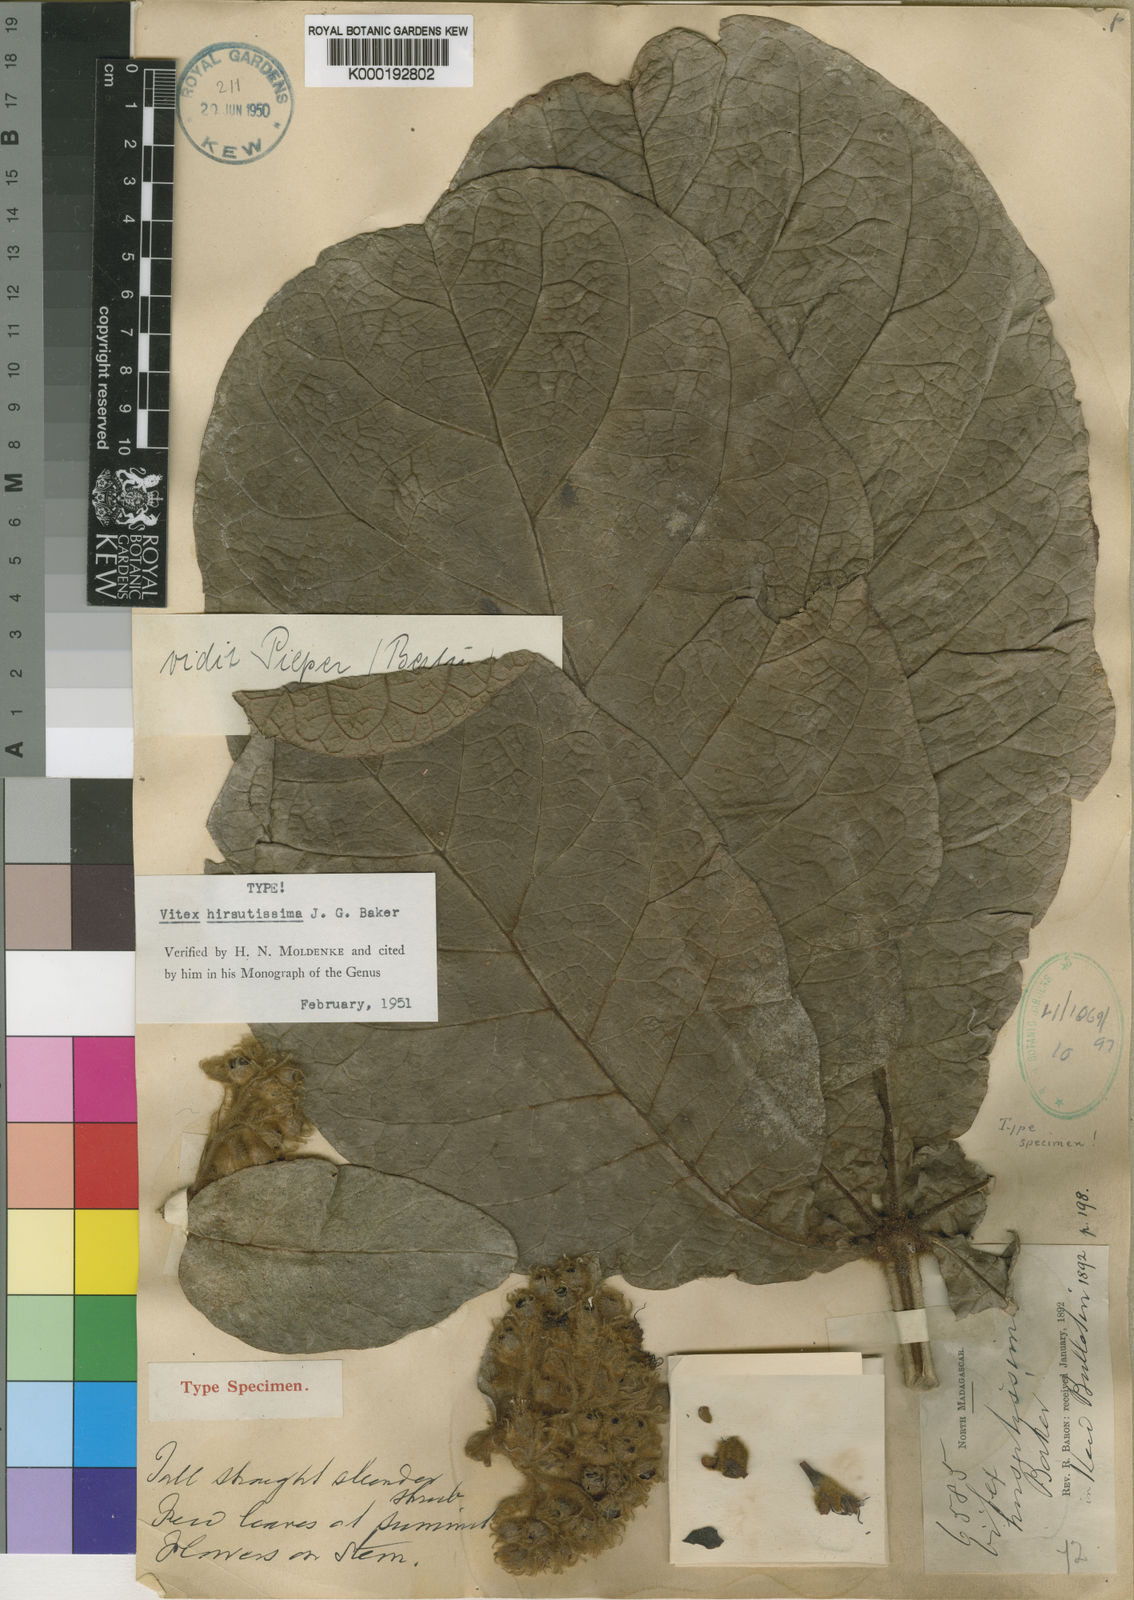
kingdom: Plantae
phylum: Tracheophyta
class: Magnoliopsida
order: Lamiales
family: Lamiaceae
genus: Vitex
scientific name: Vitex hirsutissima
